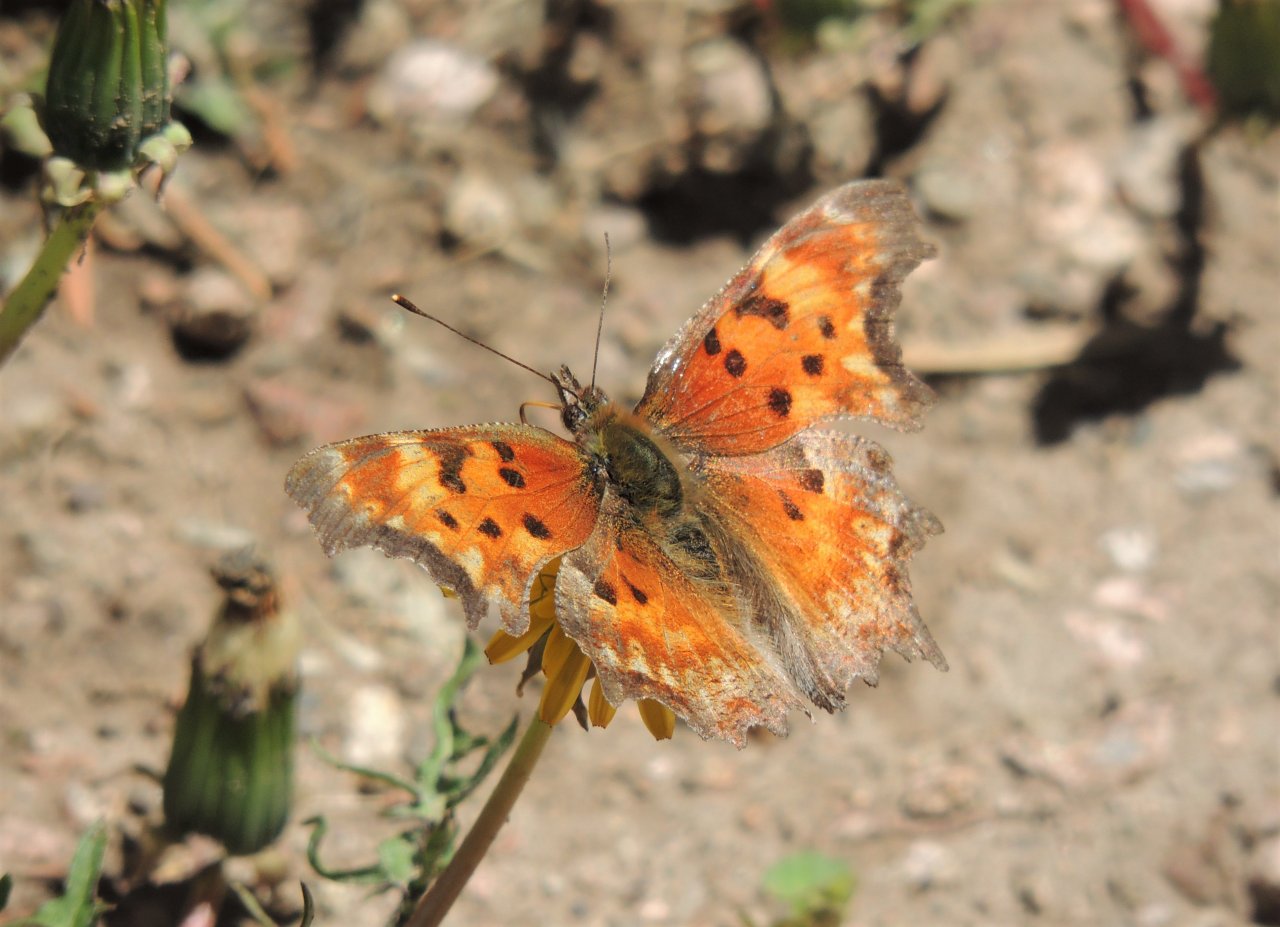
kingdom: Animalia
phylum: Arthropoda
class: Insecta
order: Lepidoptera
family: Nymphalidae
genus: Polygonia
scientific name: Polygonia gracilis
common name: Hoary Comma
